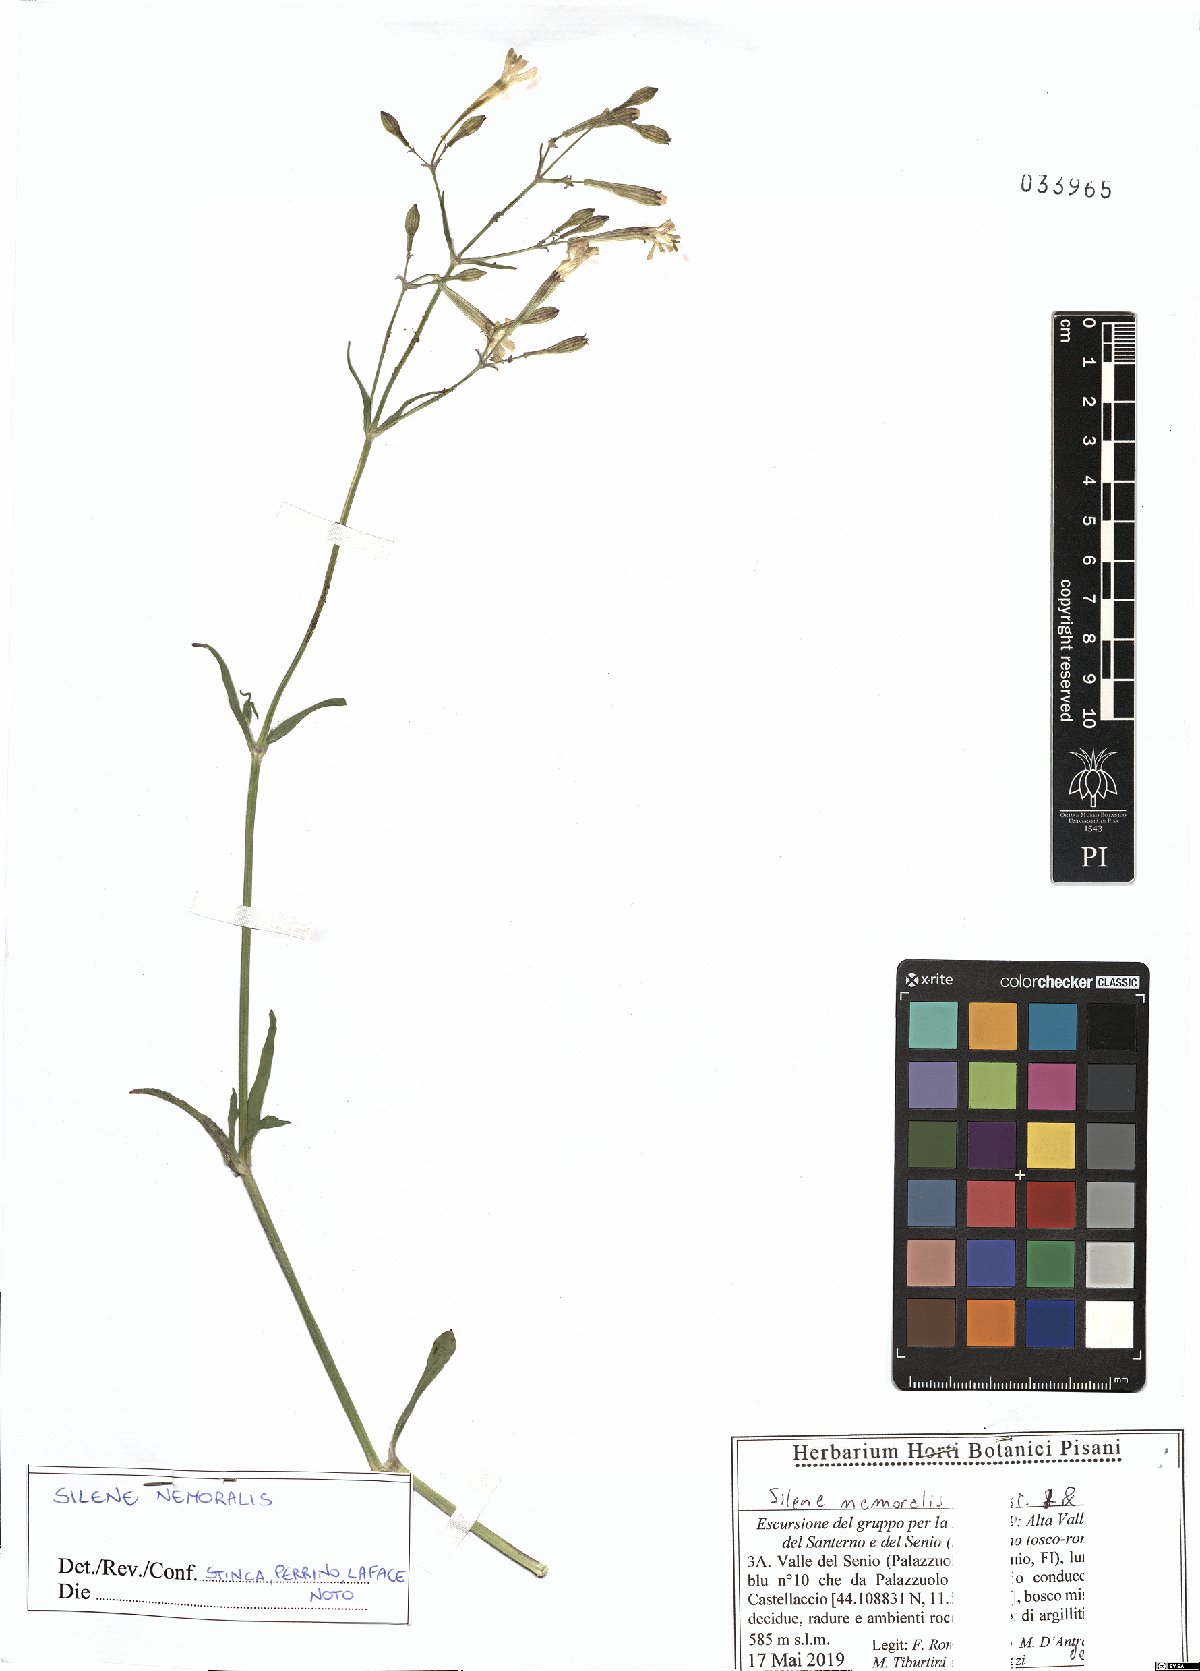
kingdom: Plantae
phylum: Tracheophyta
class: Magnoliopsida
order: Caryophyllales
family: Caryophyllaceae
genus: Silene
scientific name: Silene nemoralis
